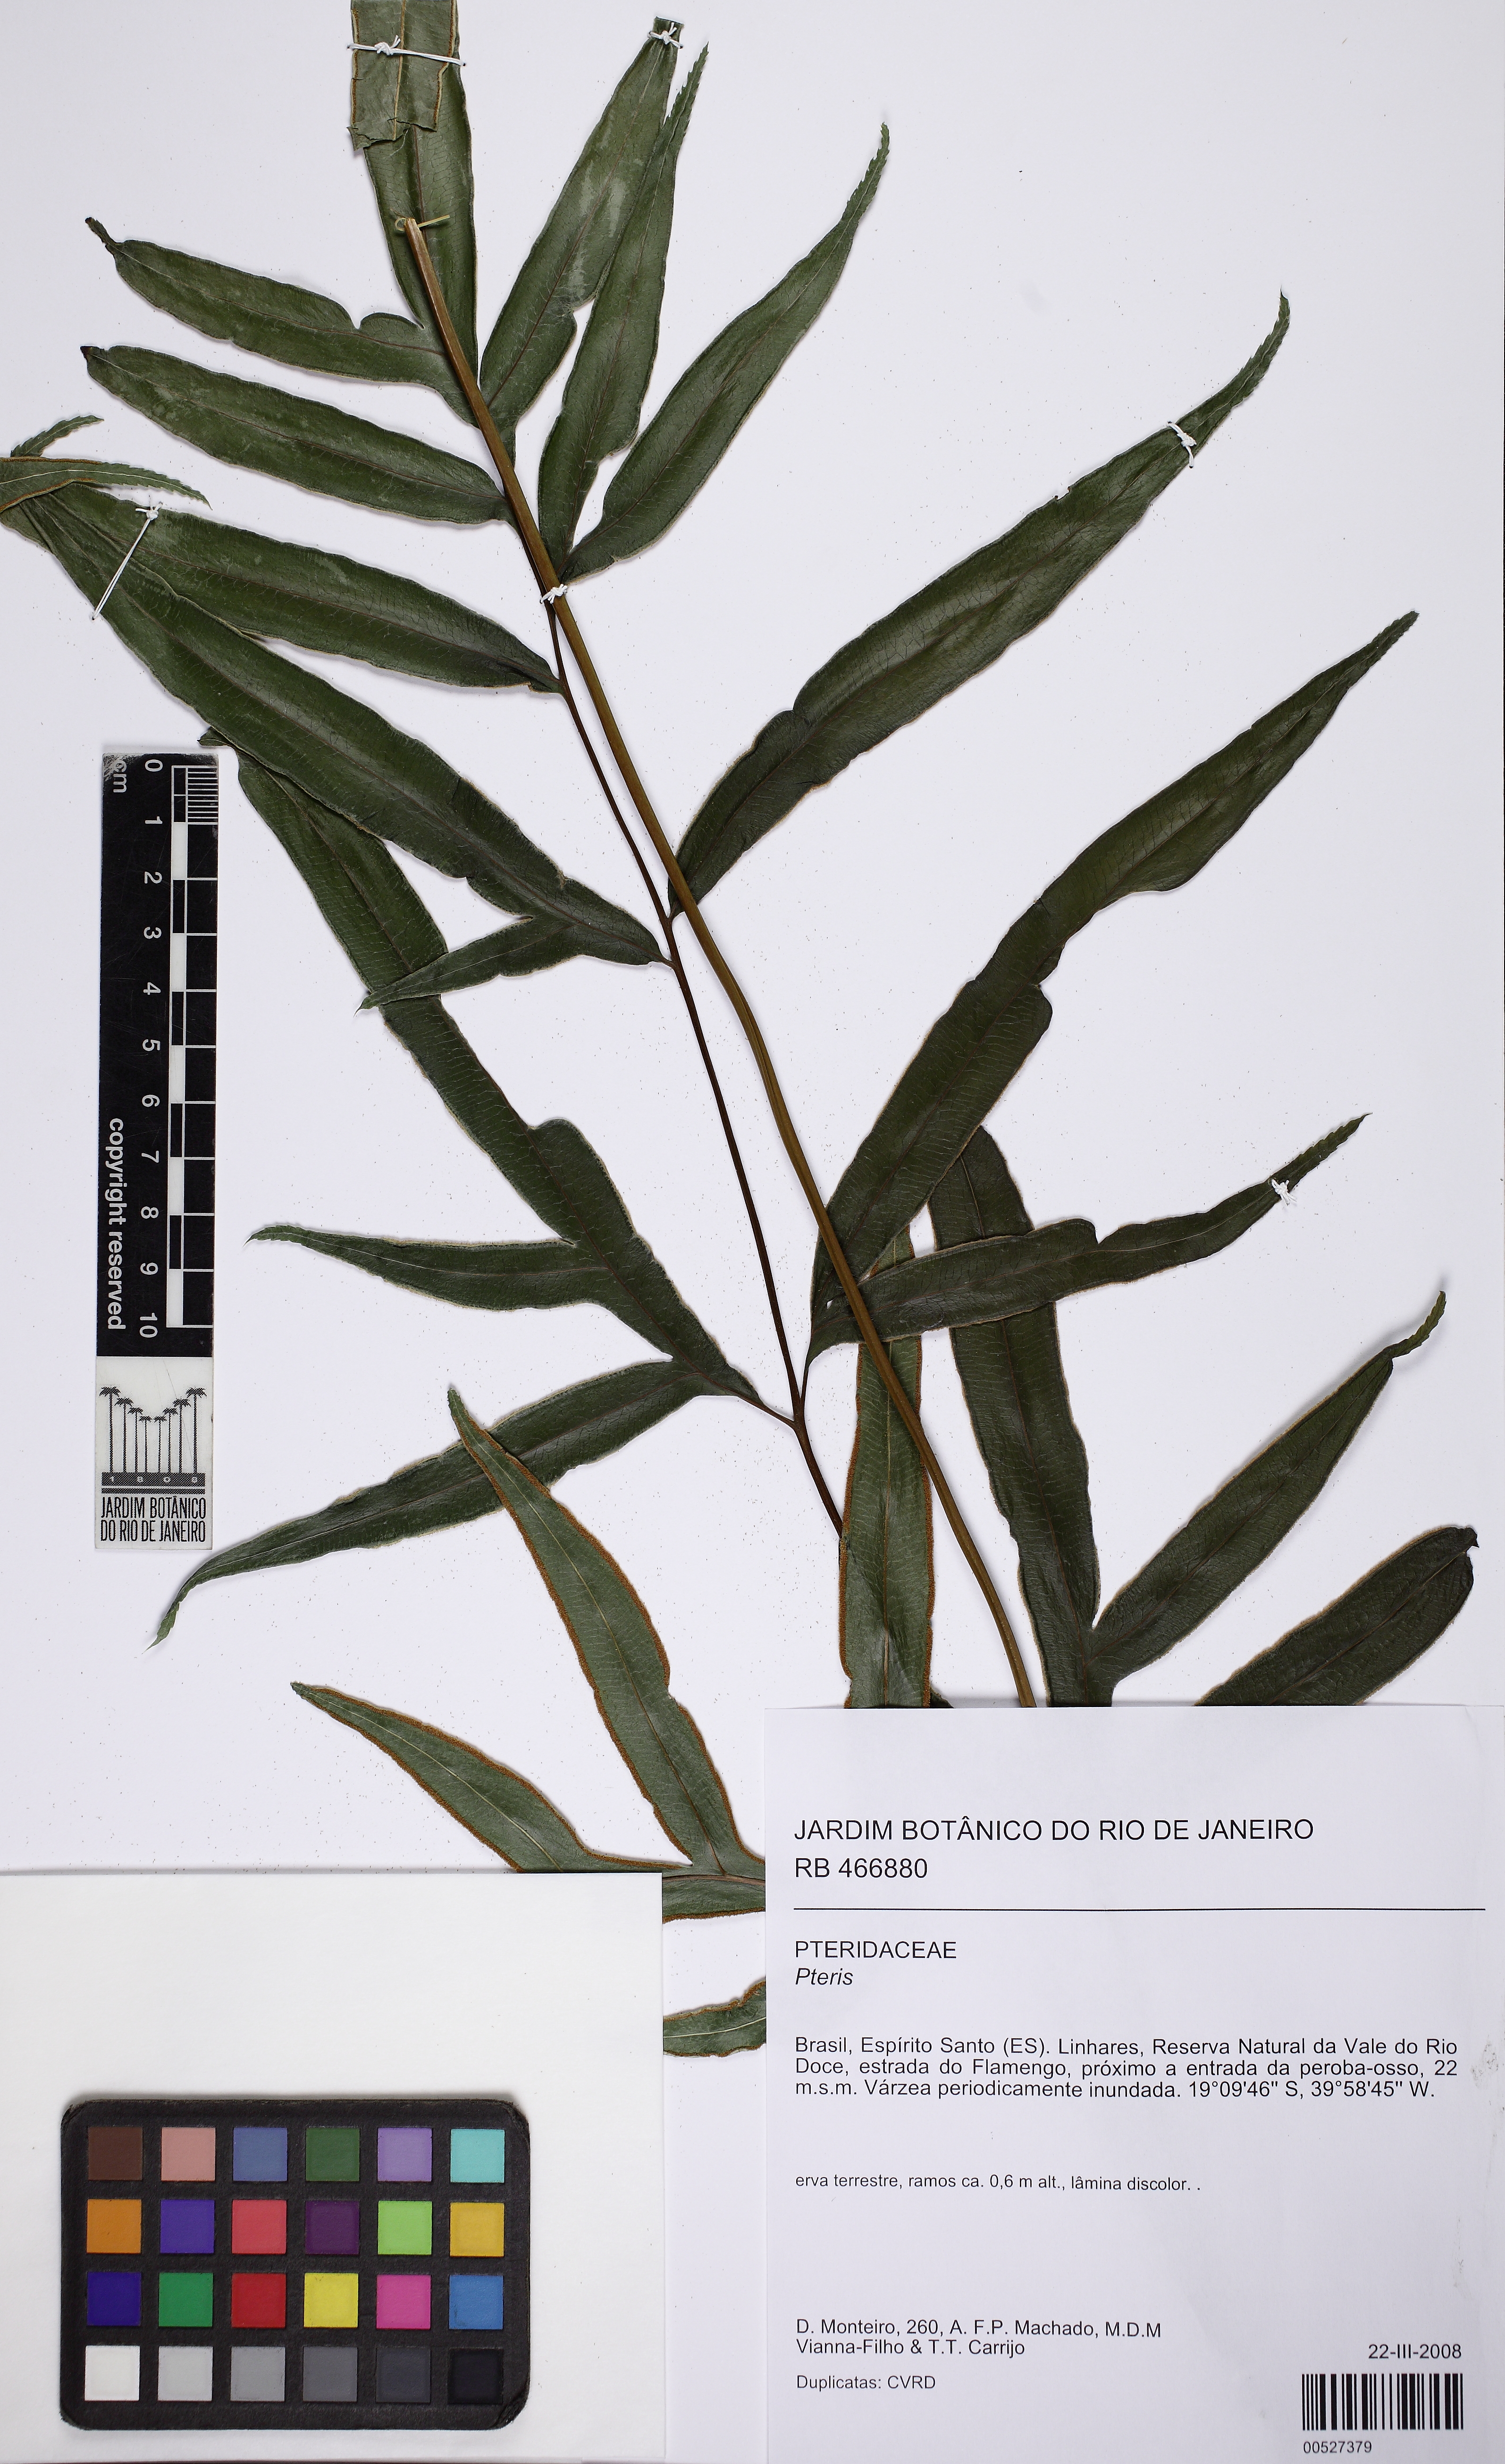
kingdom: Plantae
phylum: Tracheophyta
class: Polypodiopsida
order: Polypodiales
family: Pteridaceae
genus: Pteris
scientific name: Pteris brasiliensis
